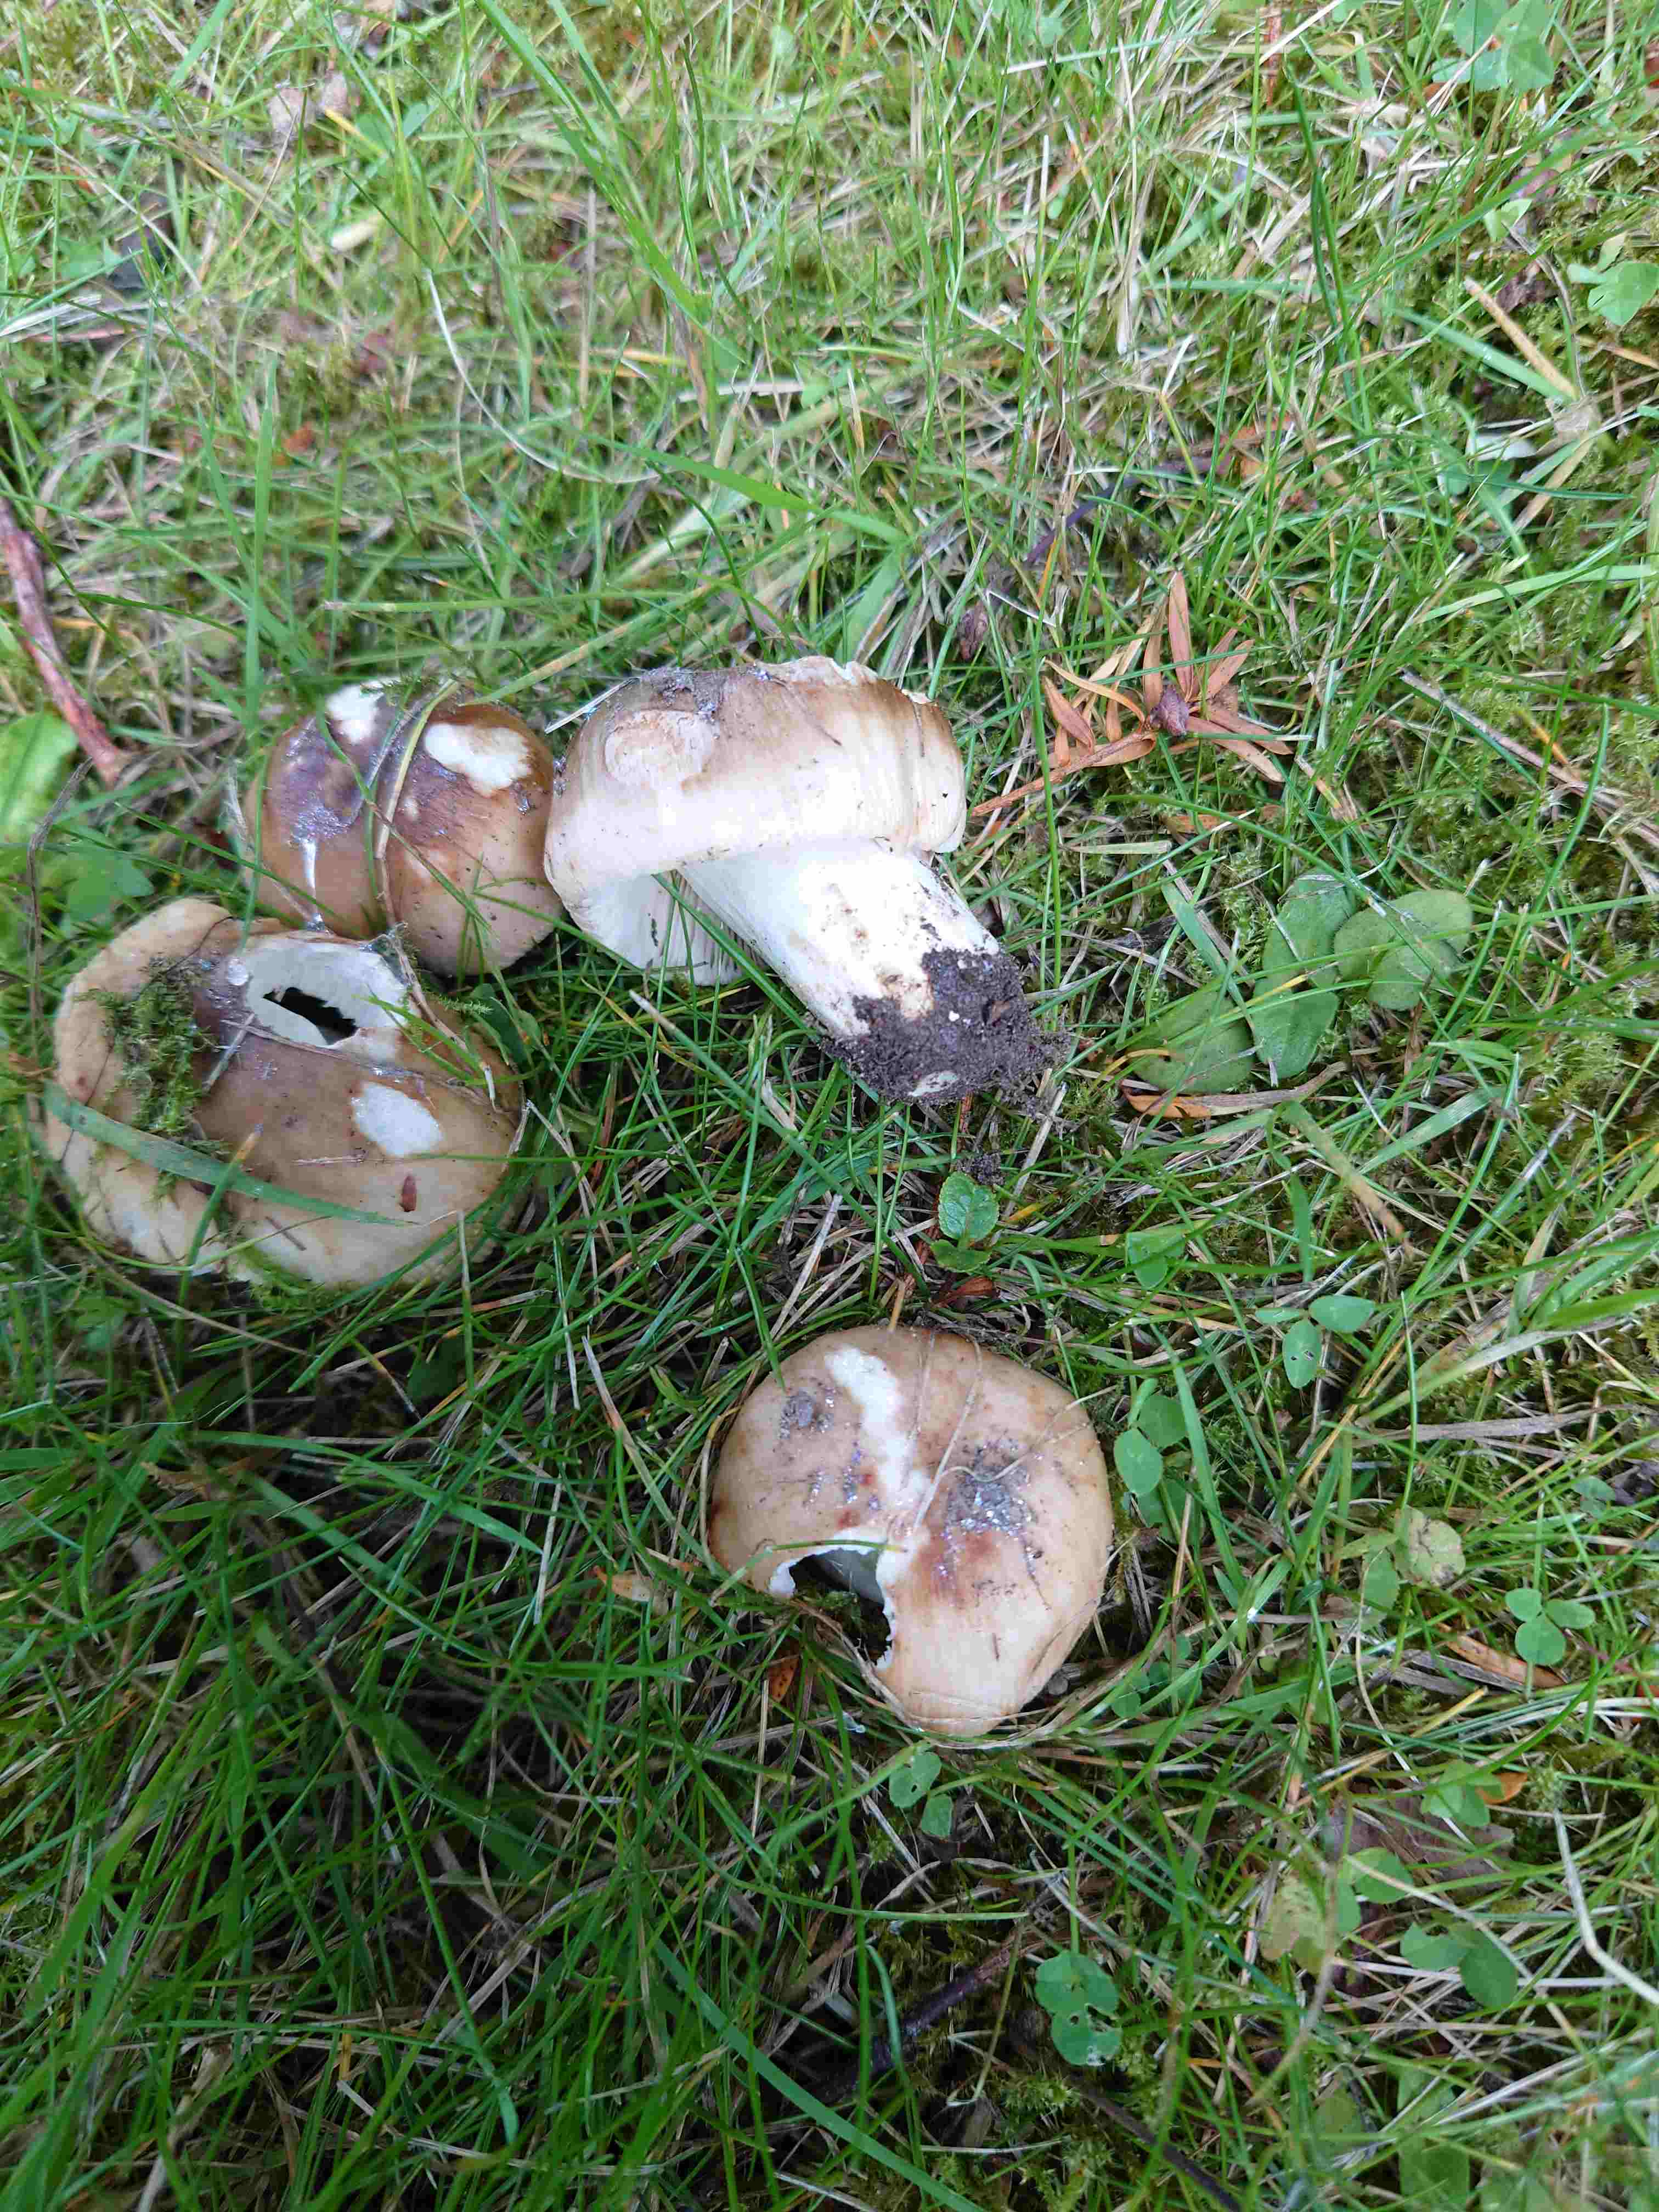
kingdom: Fungi
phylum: Basidiomycota
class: Agaricomycetes
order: Russulales
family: Russulaceae
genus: Russula
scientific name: Russula recondita
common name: mild kam-skørhat
